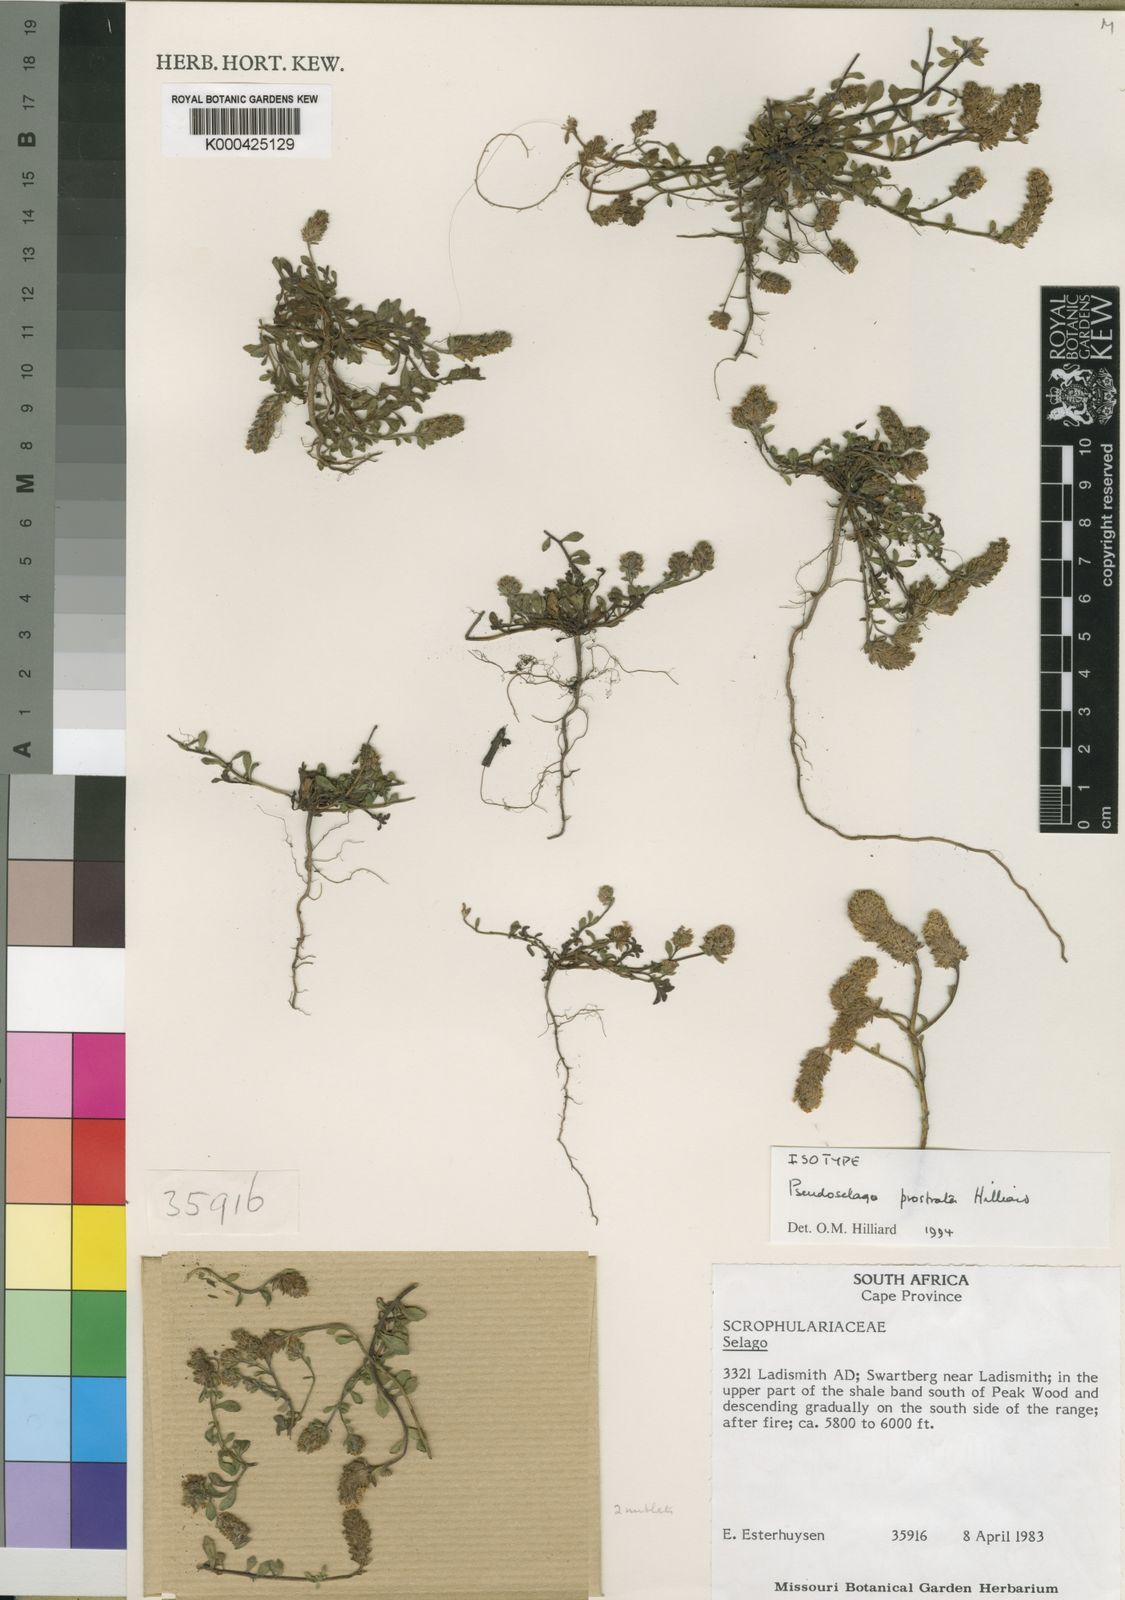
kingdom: Plantae
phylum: Tracheophyta
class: Magnoliopsida
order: Lamiales
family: Scrophulariaceae
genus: Pseudoselago
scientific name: Pseudoselago prostrata
